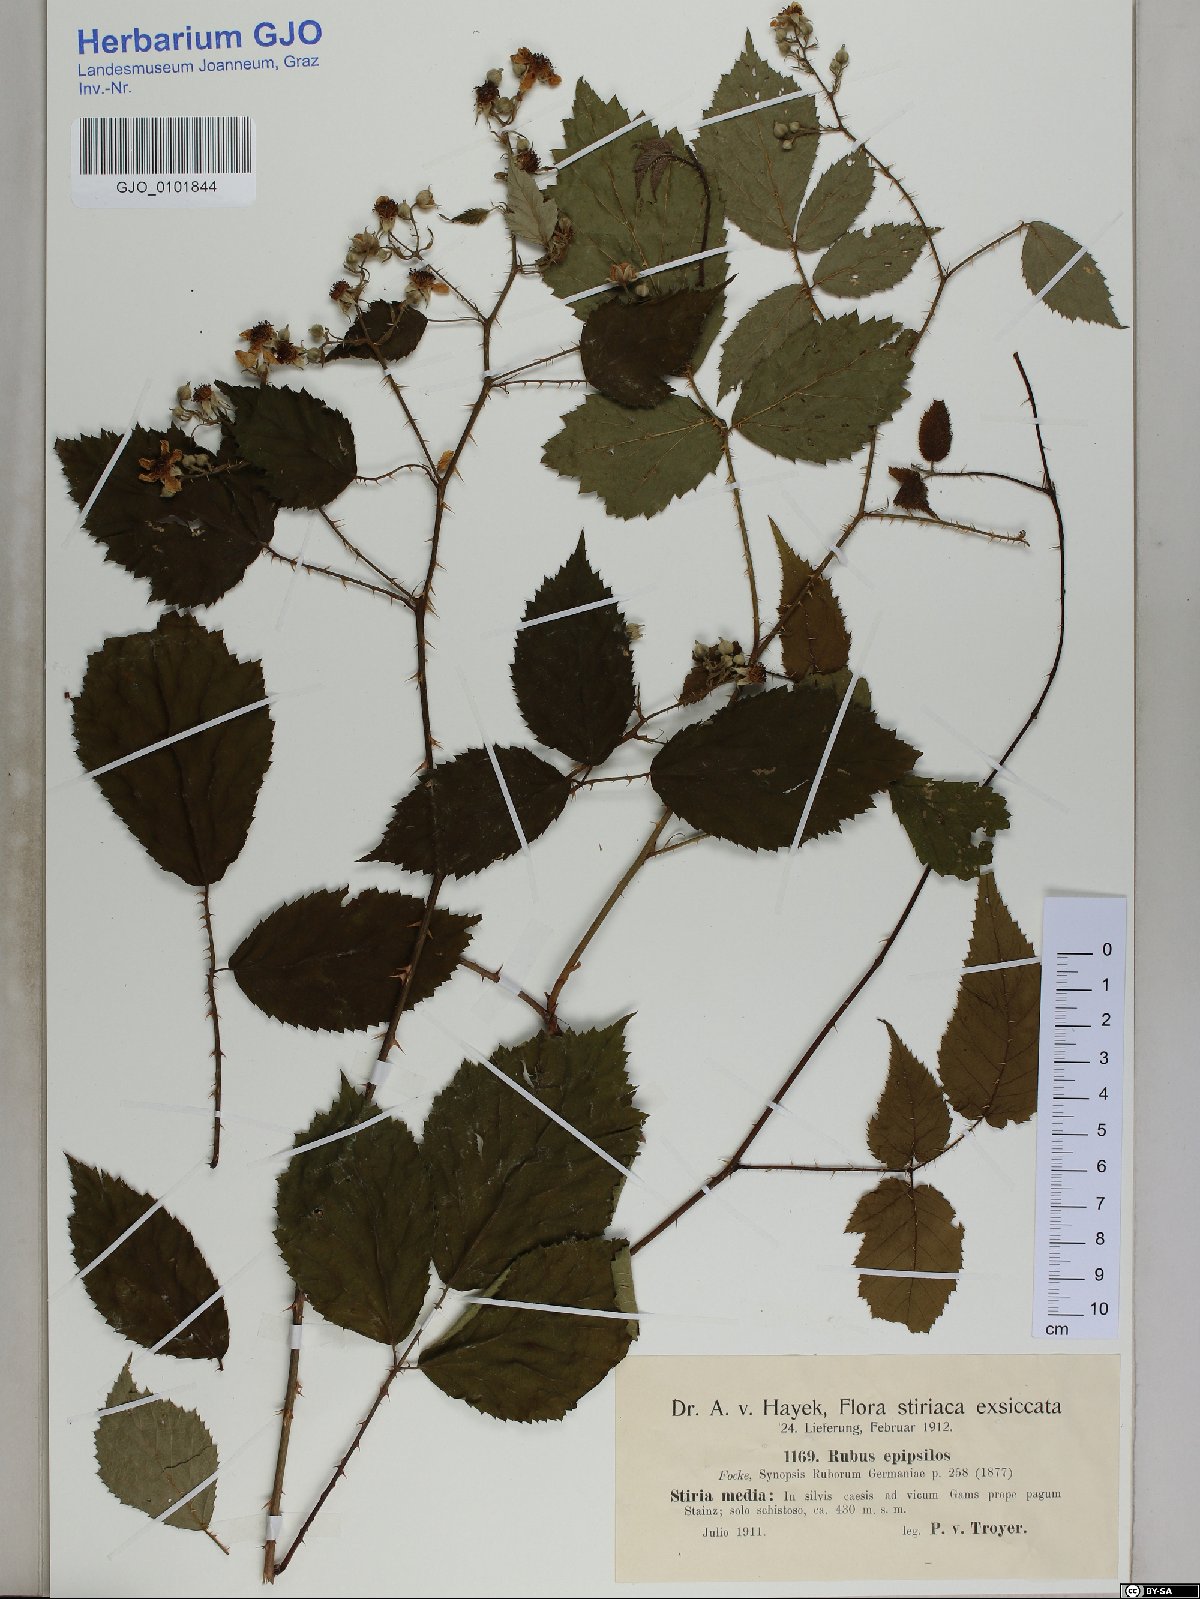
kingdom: Plantae
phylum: Tracheophyta
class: Magnoliopsida
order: Rosales
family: Rosaceae
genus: Rubus
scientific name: Rubus epipsilos
